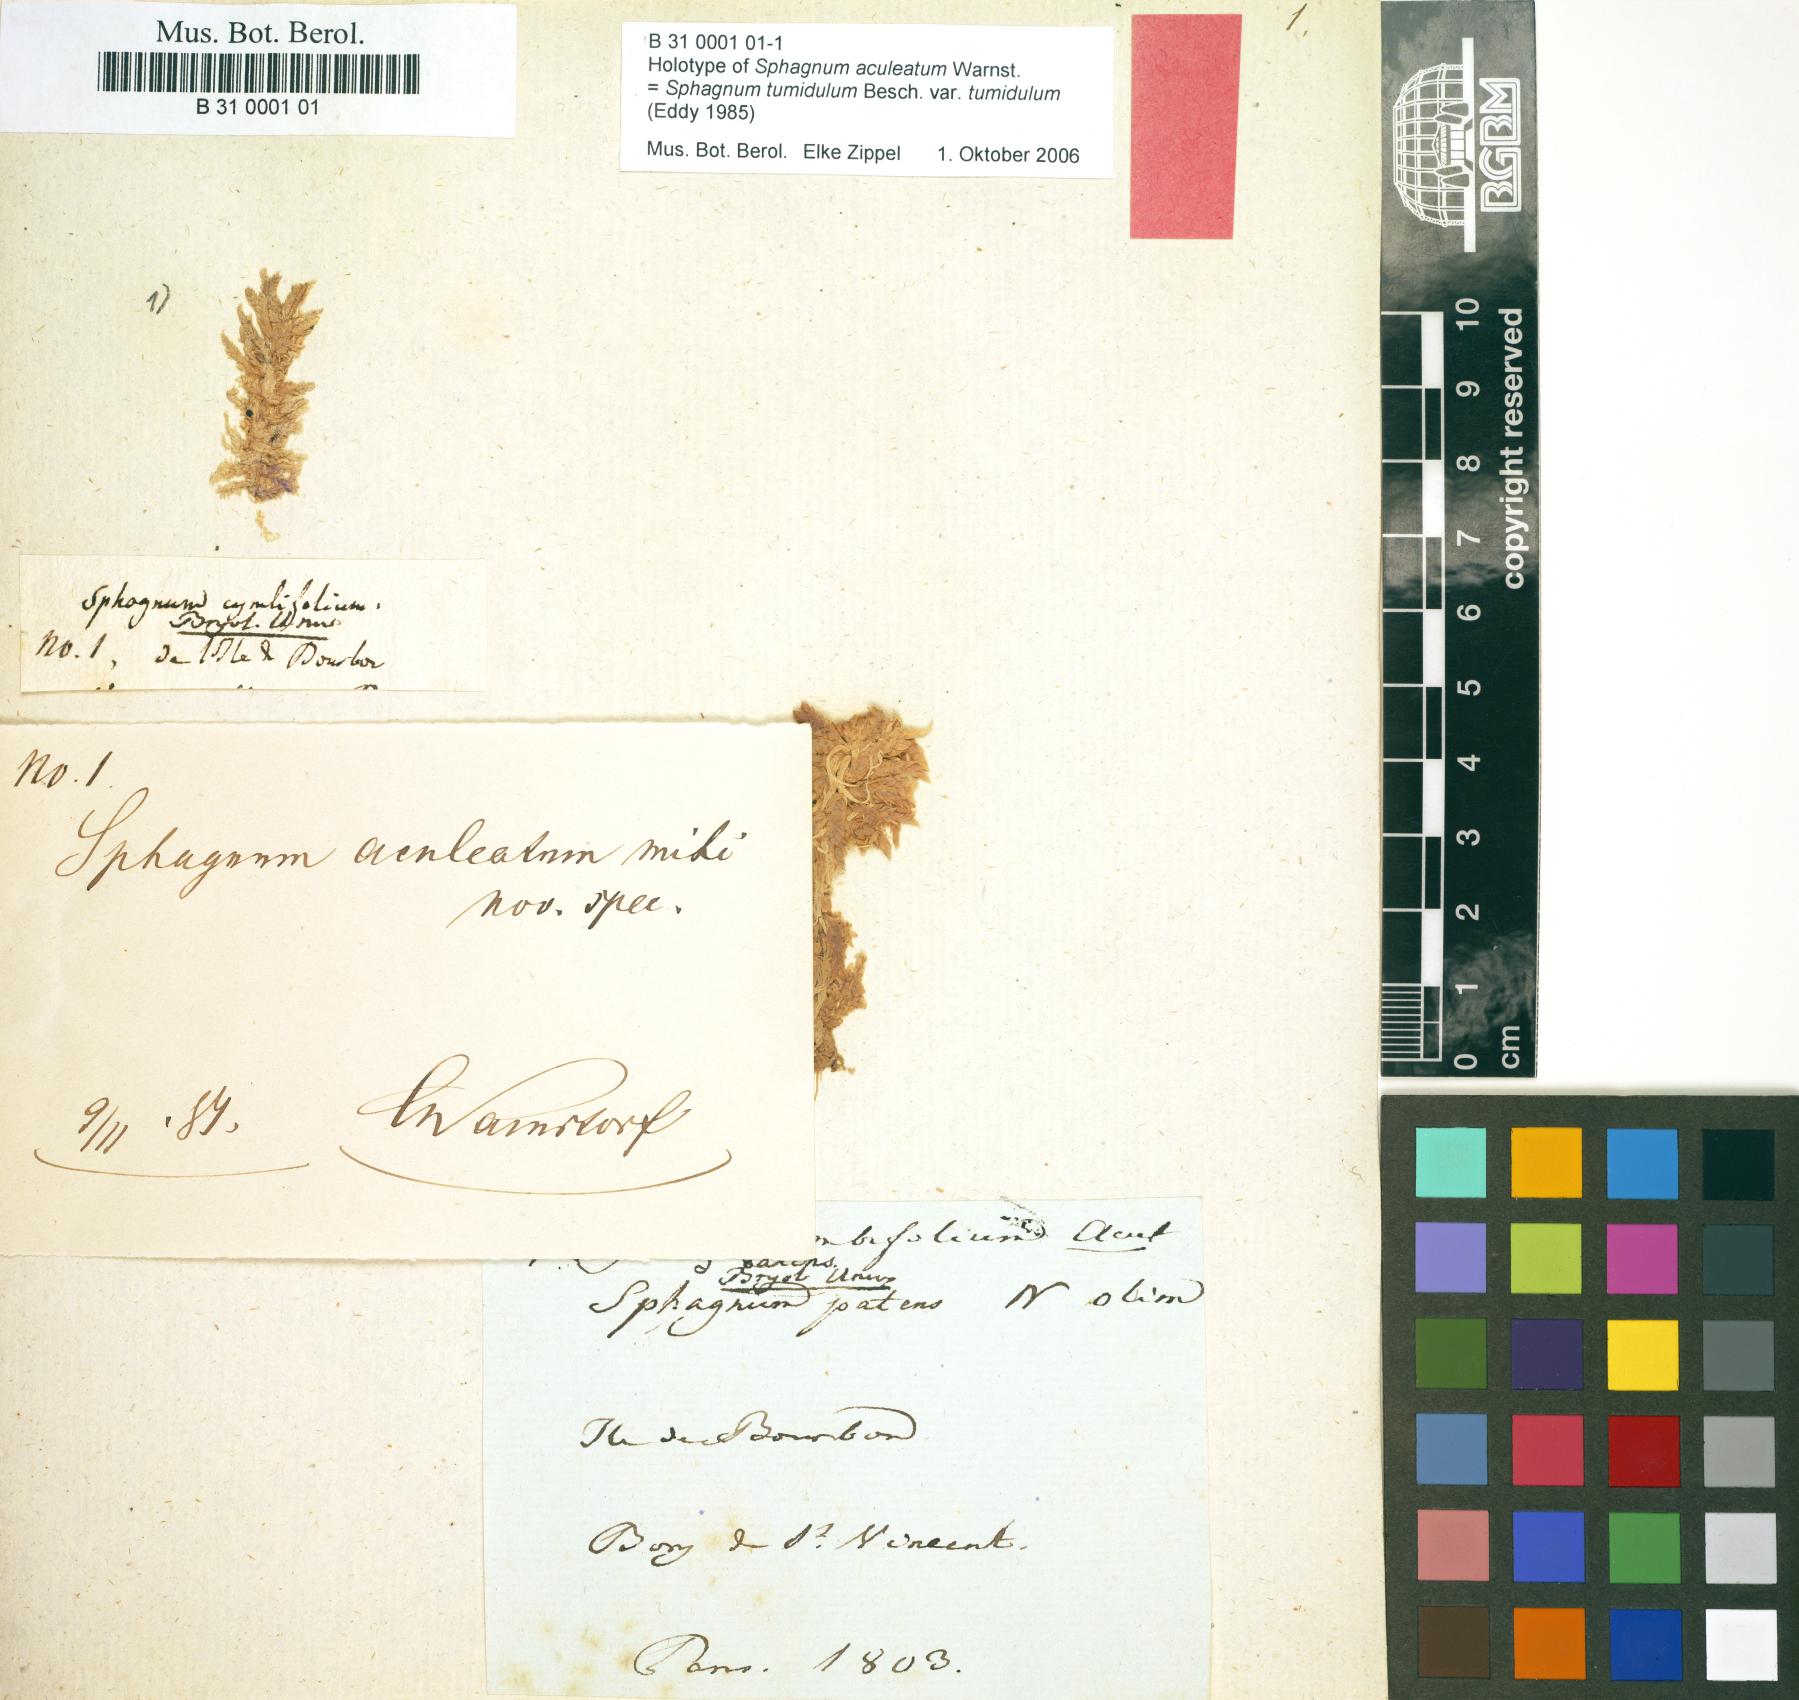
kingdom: Plantae
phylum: Bryophyta
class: Sphagnopsida
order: Sphagnales
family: Sphagnaceae
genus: Sphagnum
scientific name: Sphagnum palustre
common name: Blunt-leaved bog-moss
